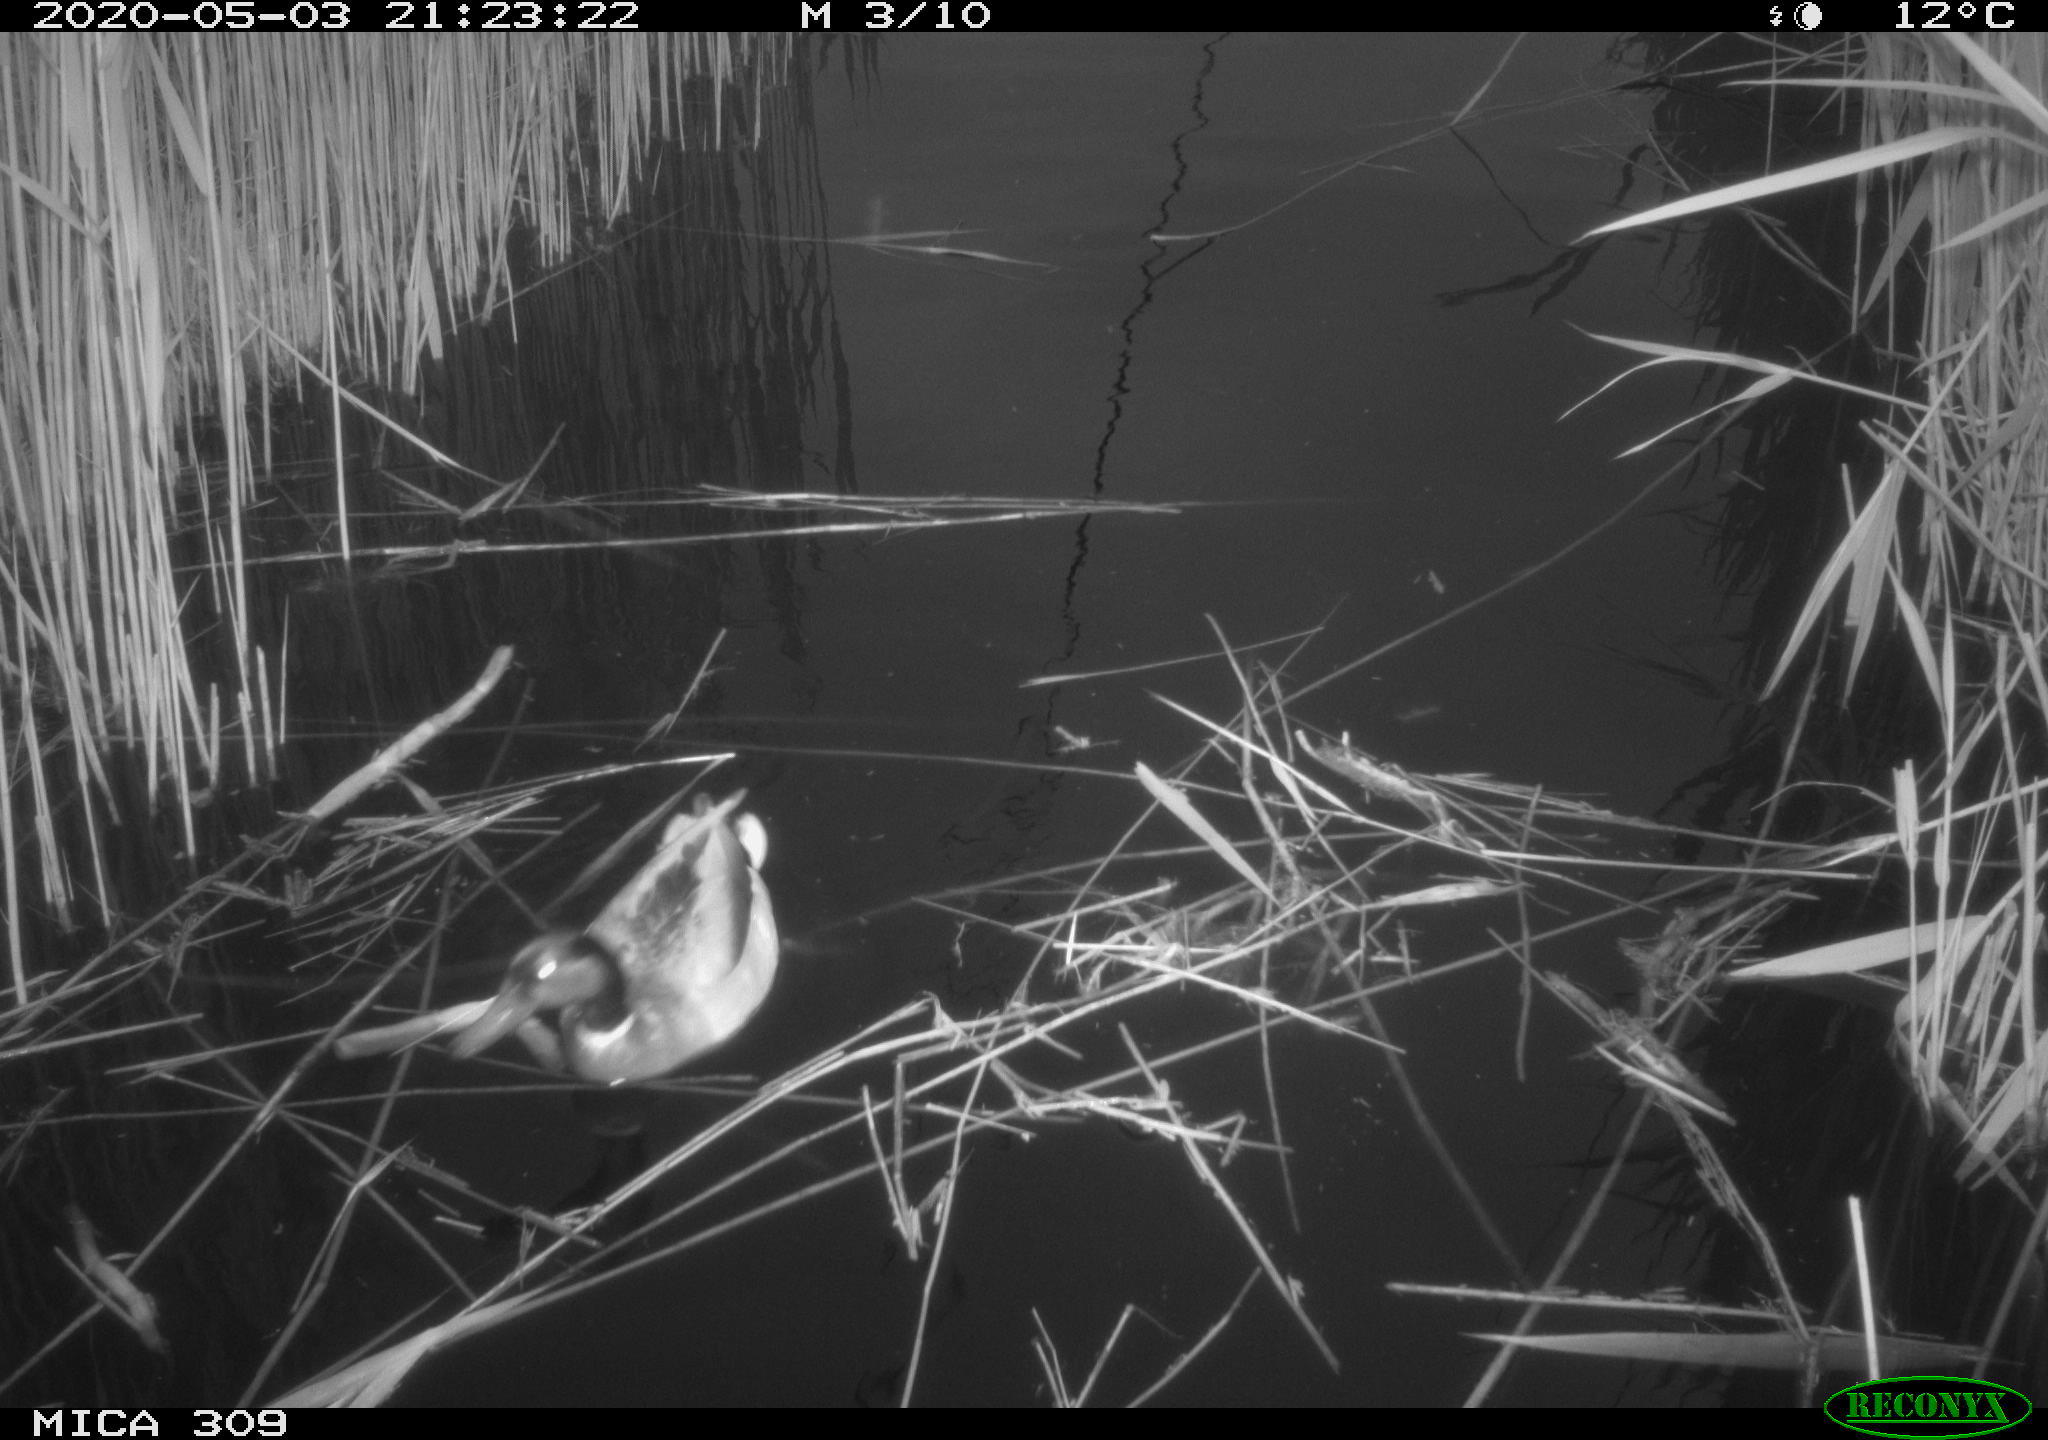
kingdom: Animalia
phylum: Chordata
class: Aves
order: Anseriformes
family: Anatidae
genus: Anas
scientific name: Anas platyrhynchos
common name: Mallard
